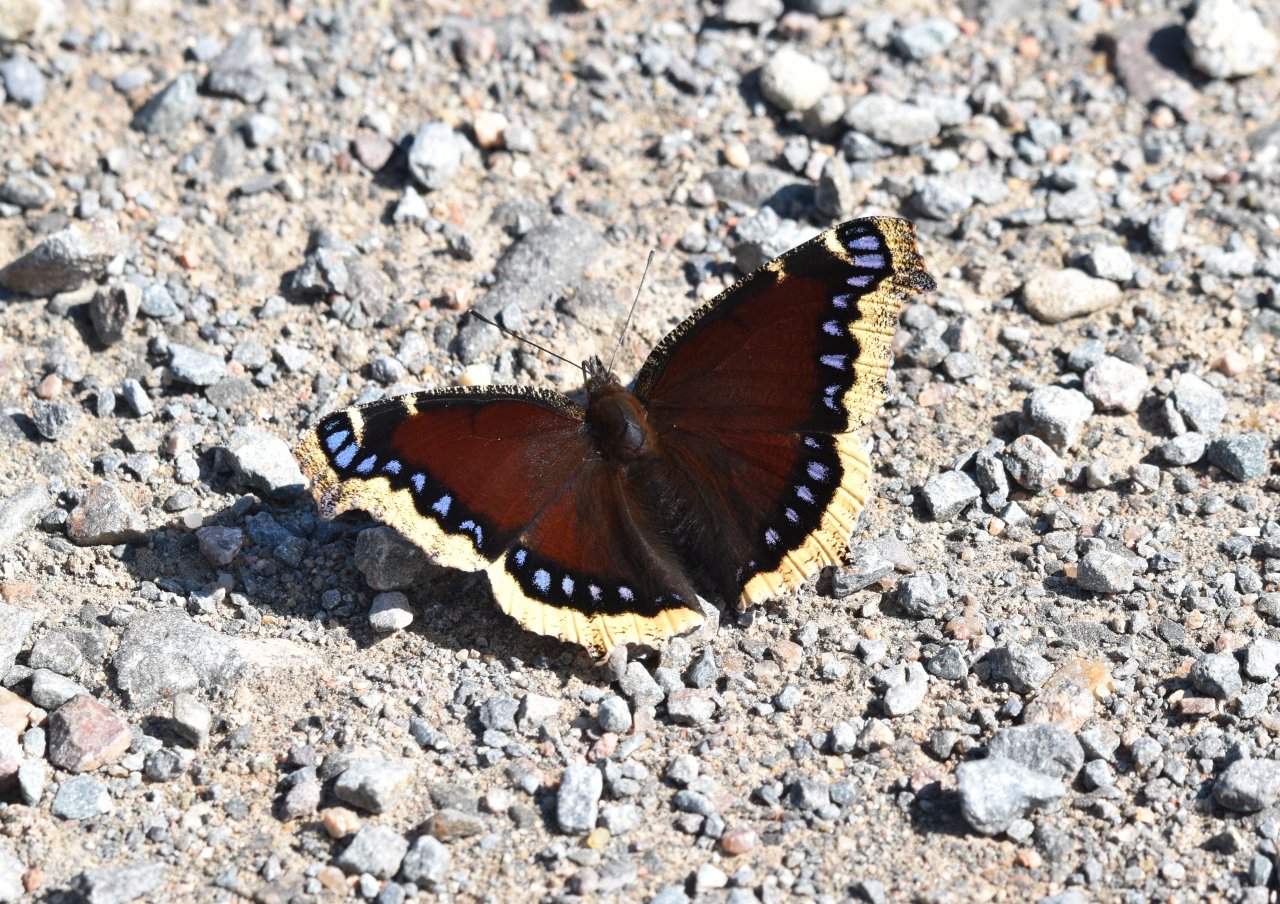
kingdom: Animalia
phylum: Arthropoda
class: Insecta
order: Lepidoptera
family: Nymphalidae
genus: Nymphalis
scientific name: Nymphalis antiopa
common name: Mourning Cloak
